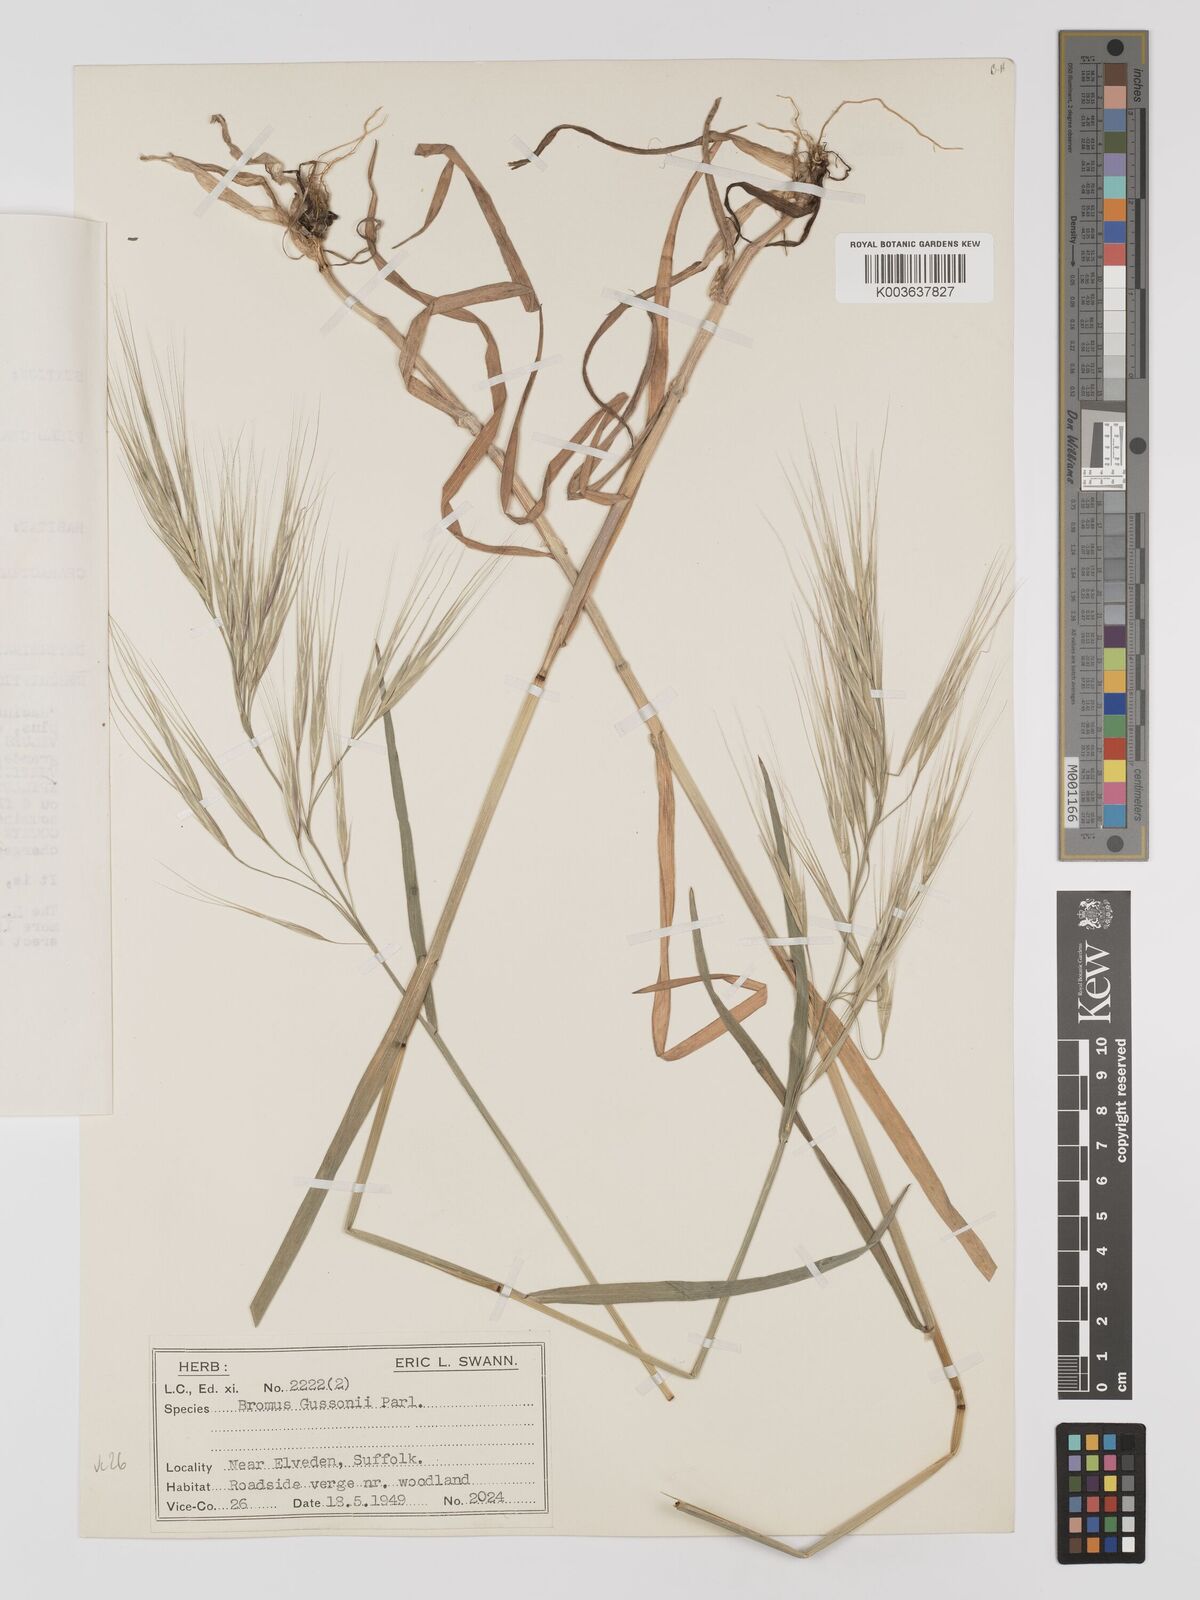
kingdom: Plantae
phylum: Tracheophyta
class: Liliopsida
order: Poales
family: Poaceae
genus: Bromus
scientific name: Bromus
